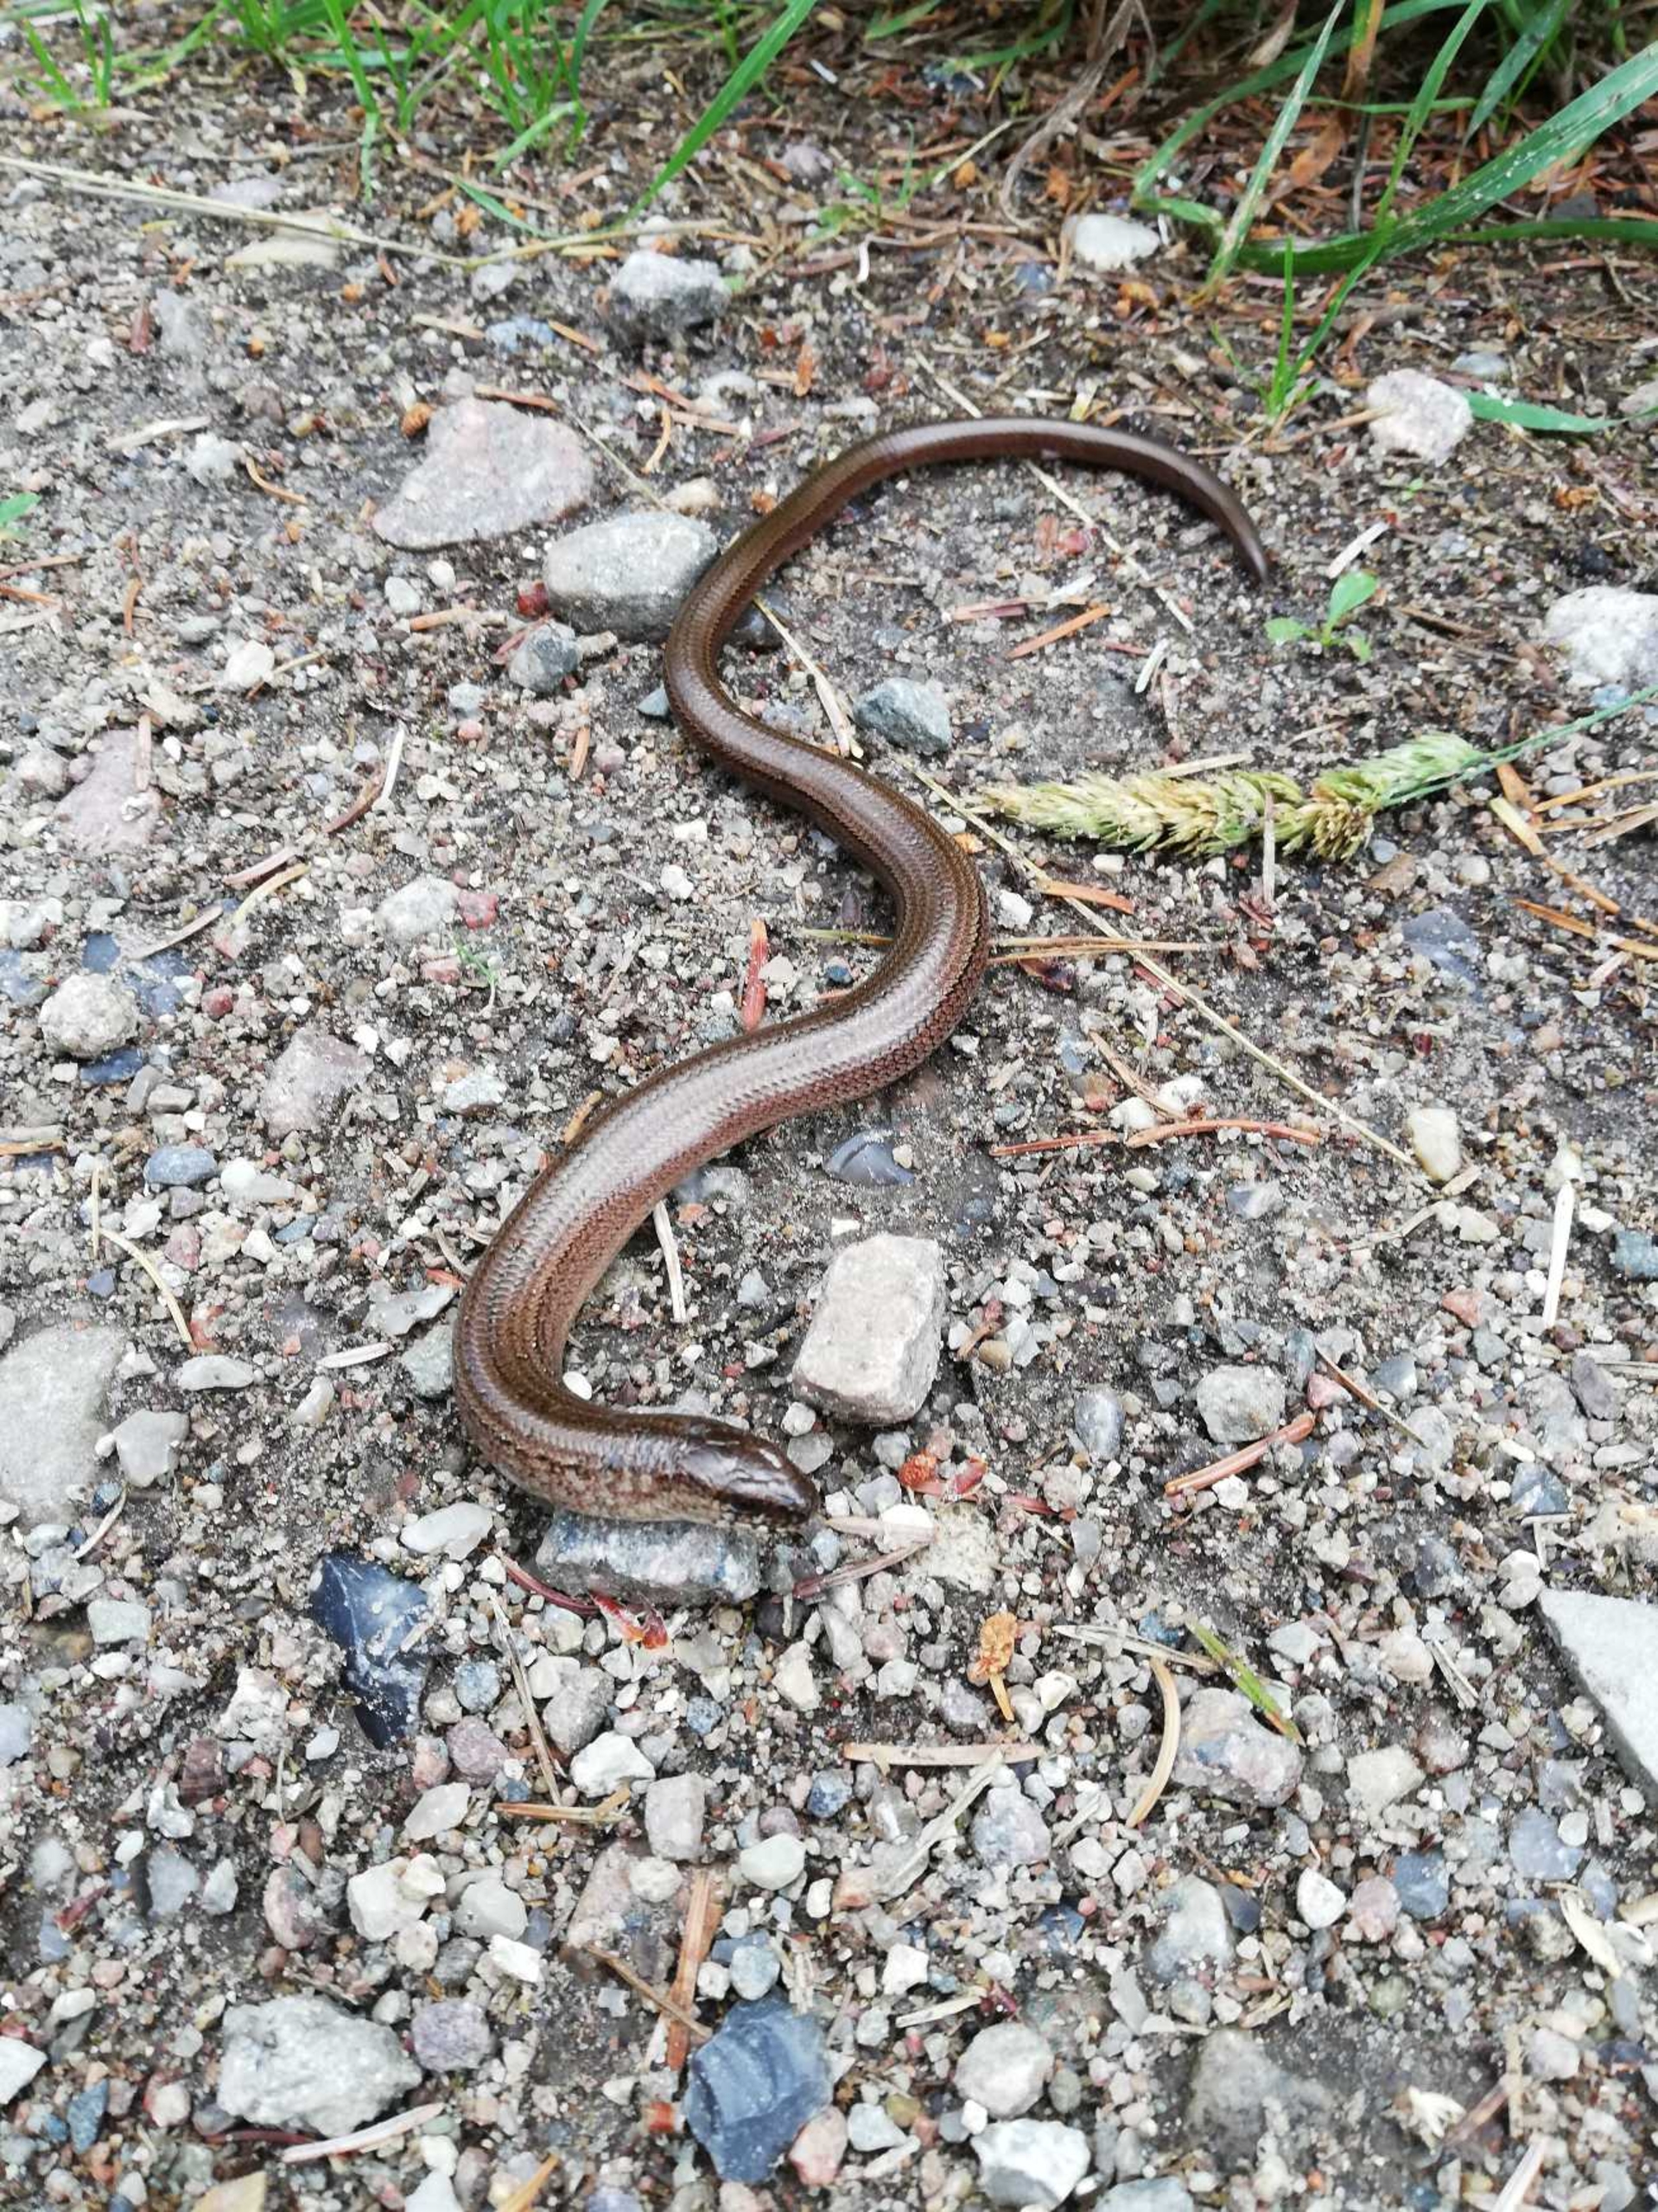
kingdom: Animalia
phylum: Chordata
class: Squamata
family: Anguidae
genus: Anguis
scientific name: Anguis fragilis
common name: Stålorm
